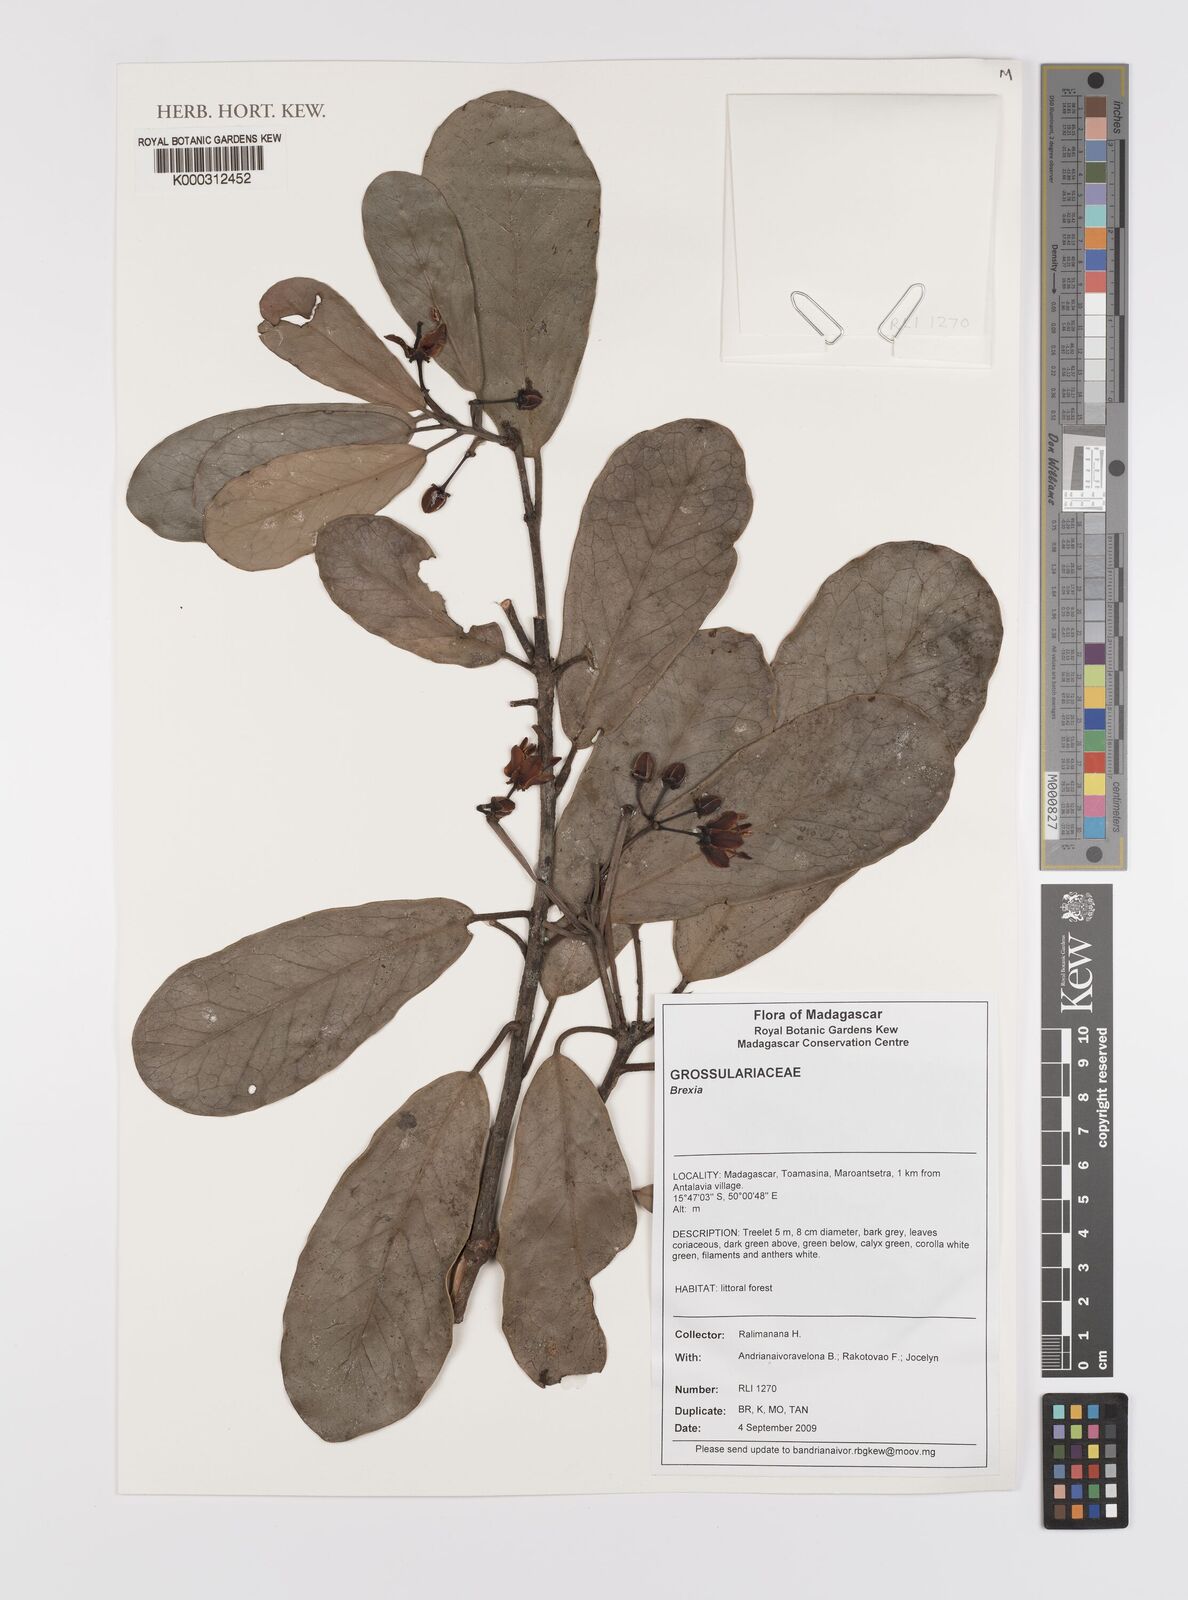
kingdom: Plantae
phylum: Tracheophyta
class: Magnoliopsida
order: Celastrales
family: Celastraceae
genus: Brexia
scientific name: Brexia
